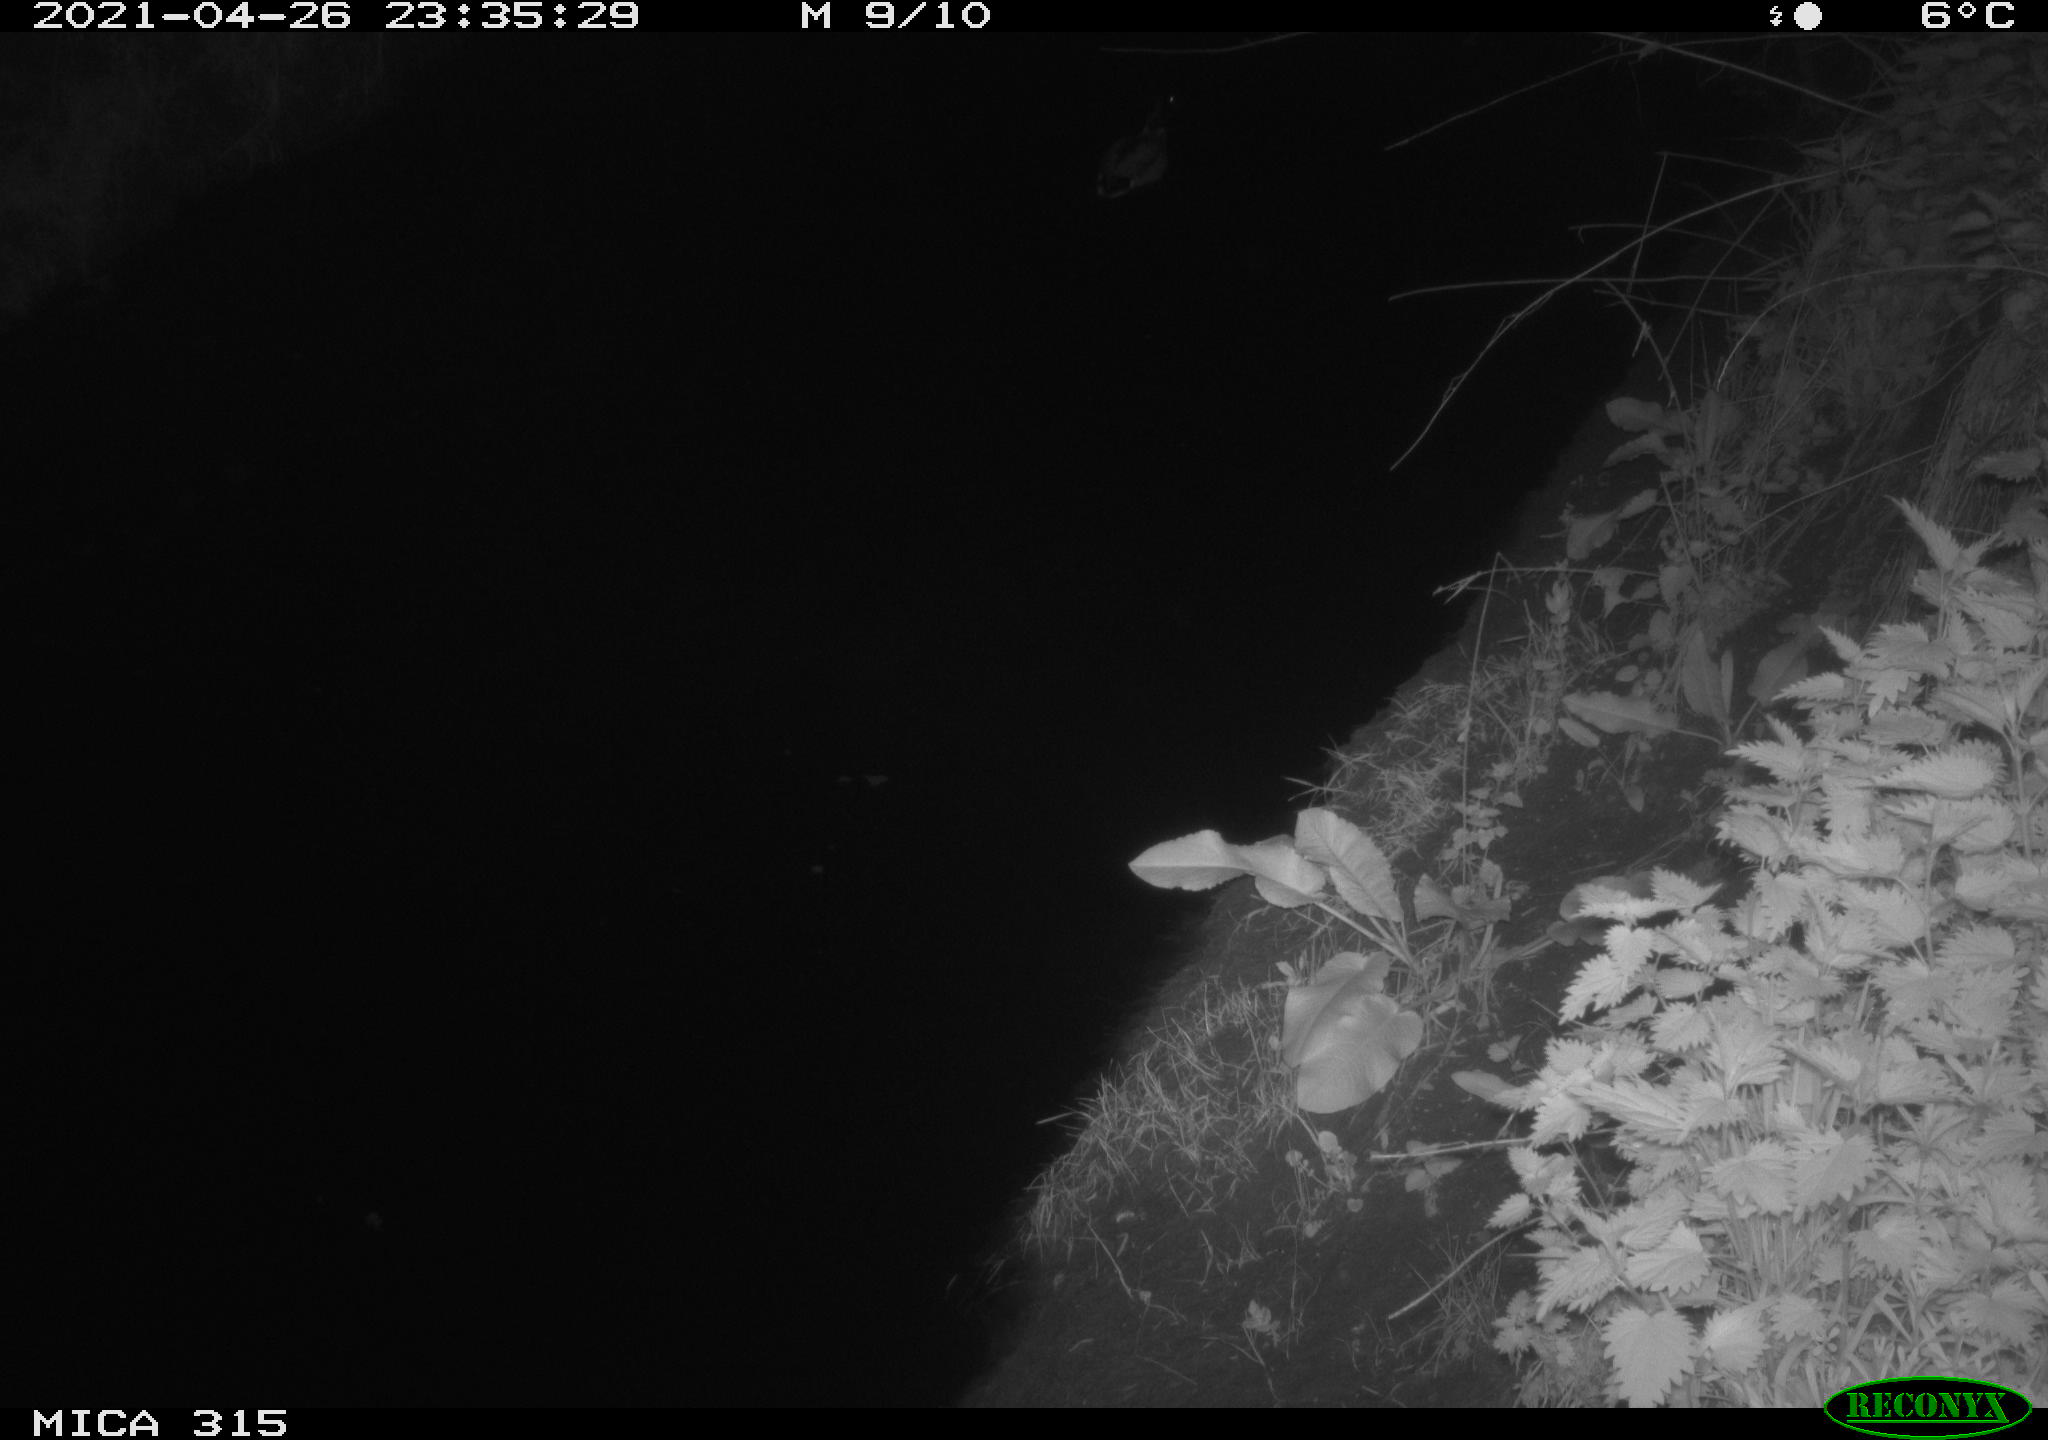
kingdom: Animalia
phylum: Chordata
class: Aves
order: Anseriformes
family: Anatidae
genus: Anas
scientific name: Anas
